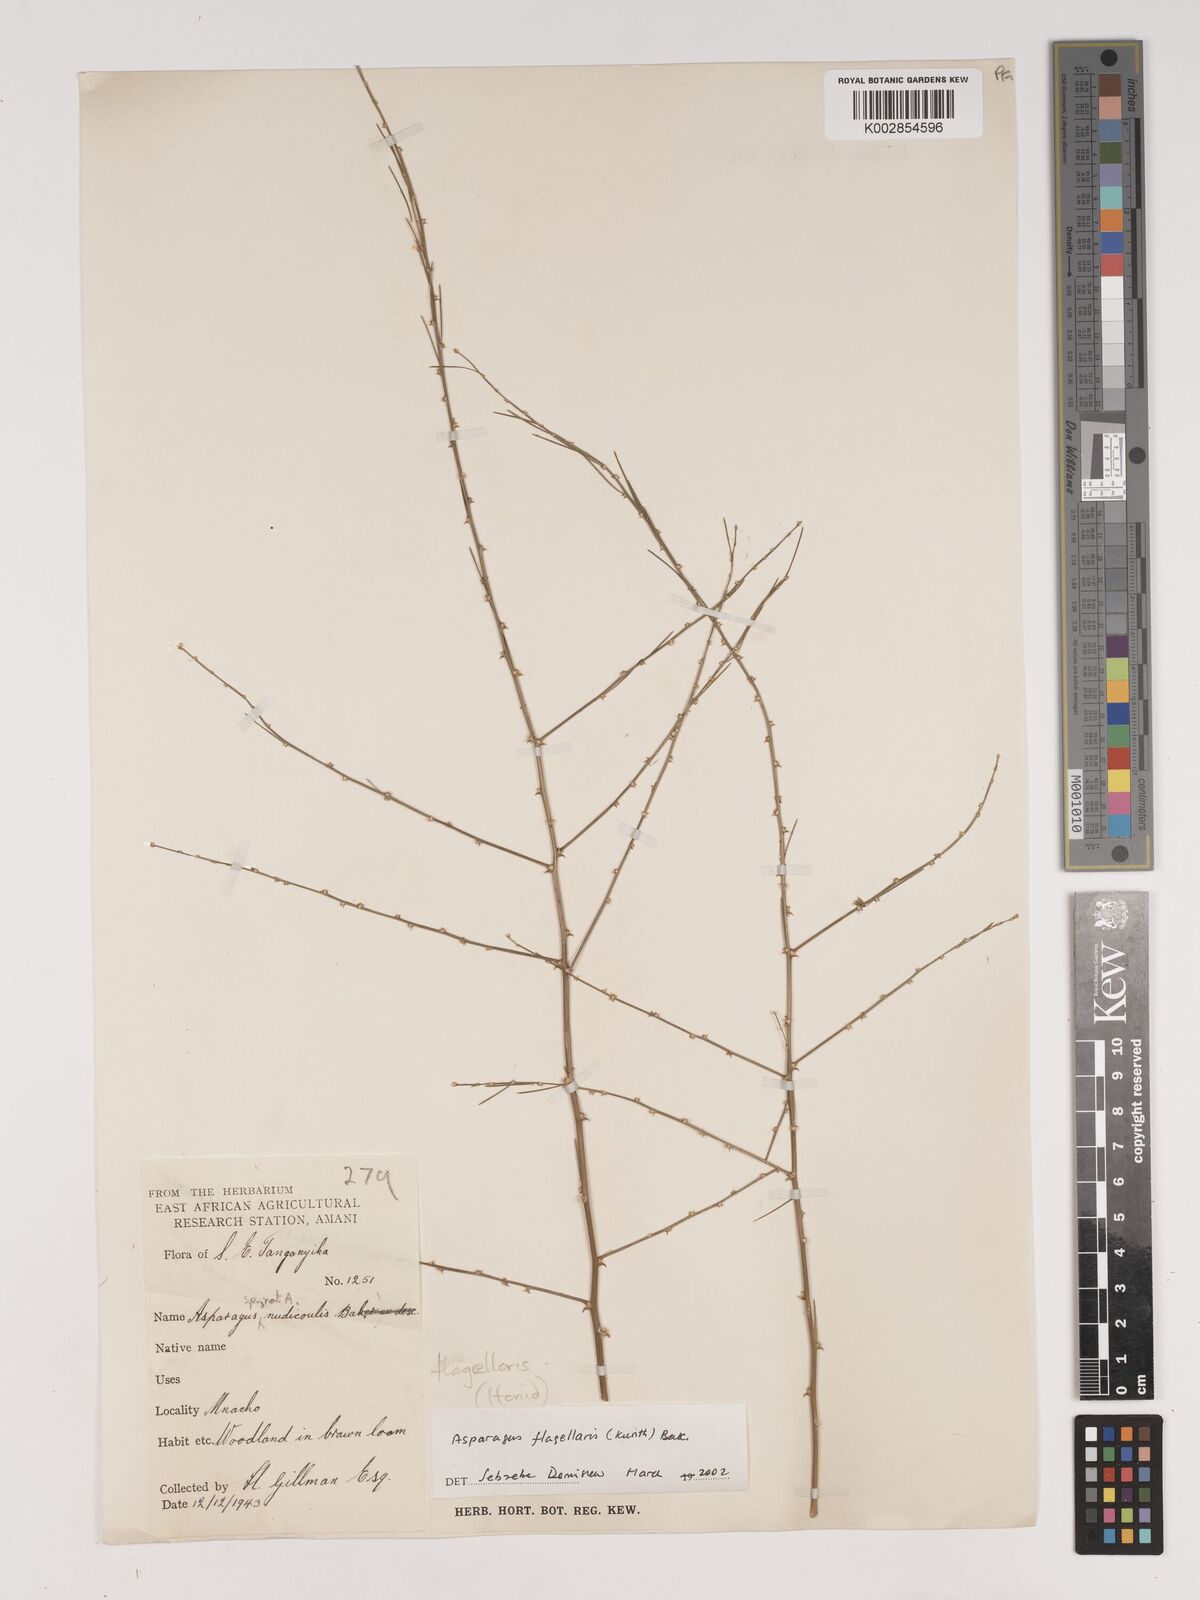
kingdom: Plantae
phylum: Tracheophyta
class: Liliopsida
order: Asparagales
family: Asparagaceae
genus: Asparagus
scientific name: Asparagus flagellaris
